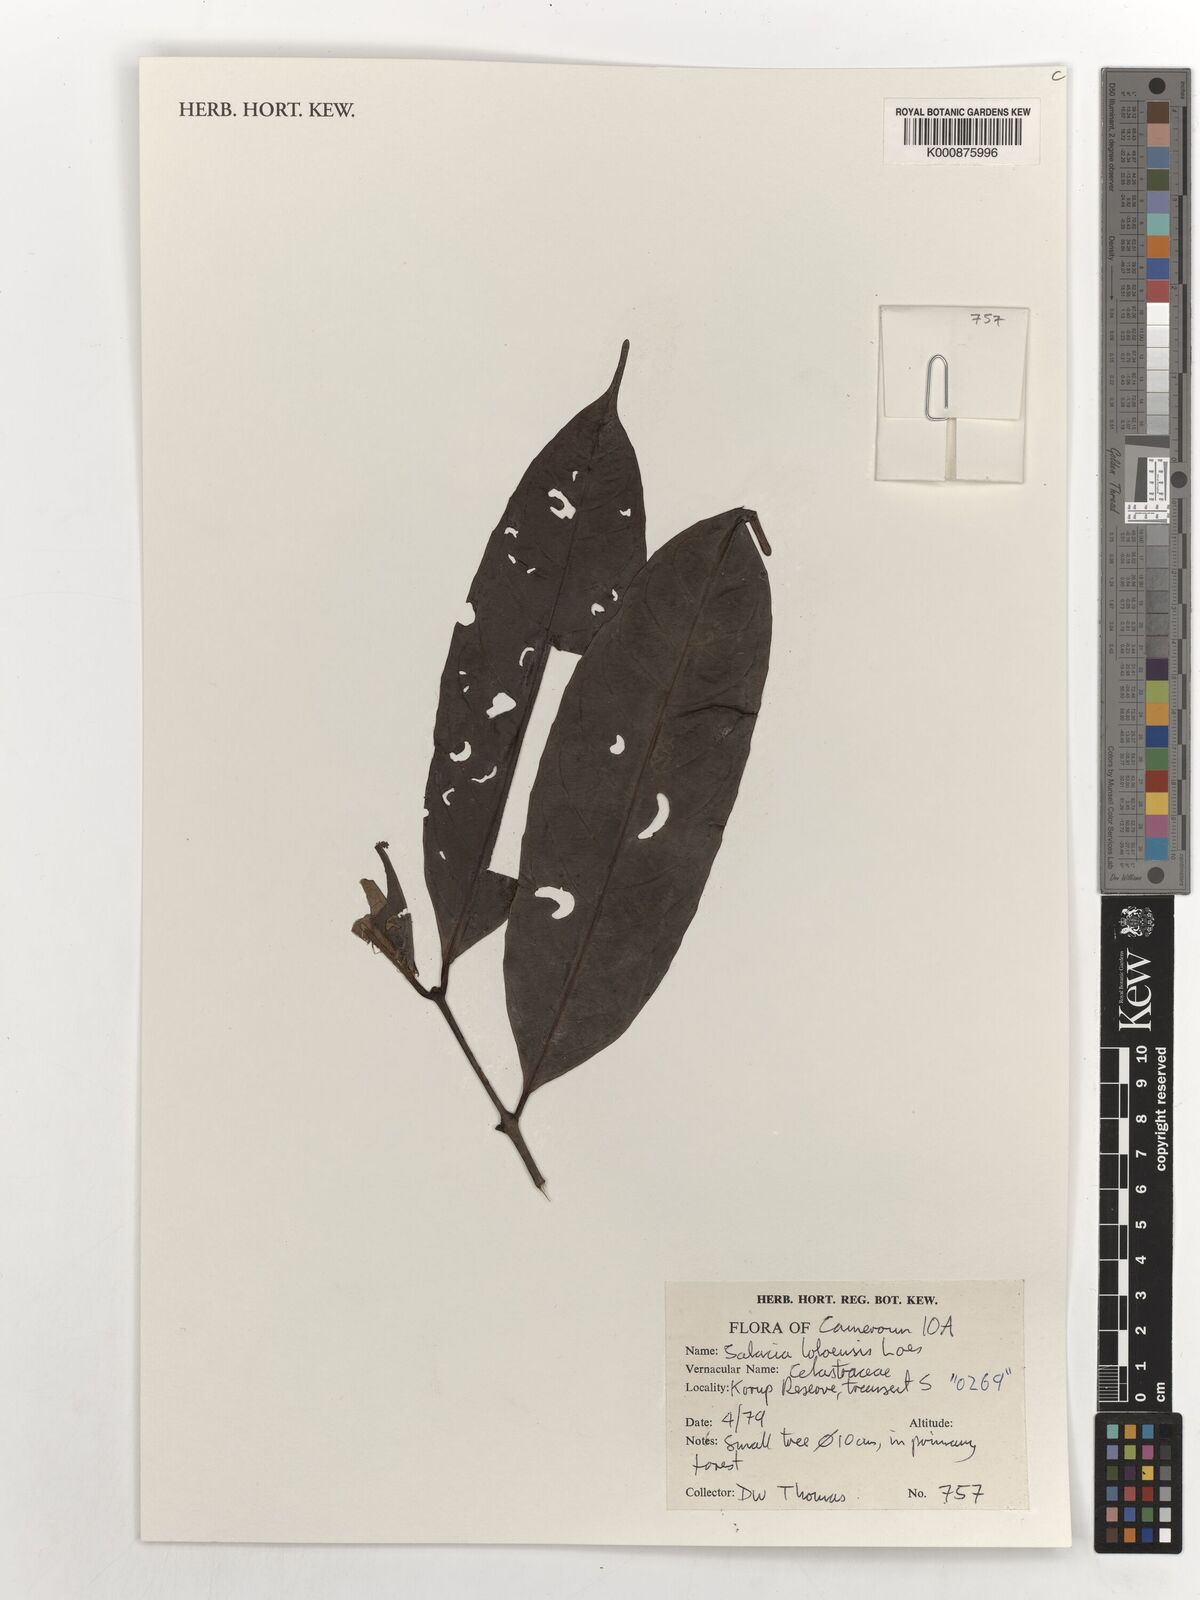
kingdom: Plantae
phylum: Tracheophyta
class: Magnoliopsida
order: Celastrales
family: Celastraceae
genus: Salacia
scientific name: Salacia loloensis
